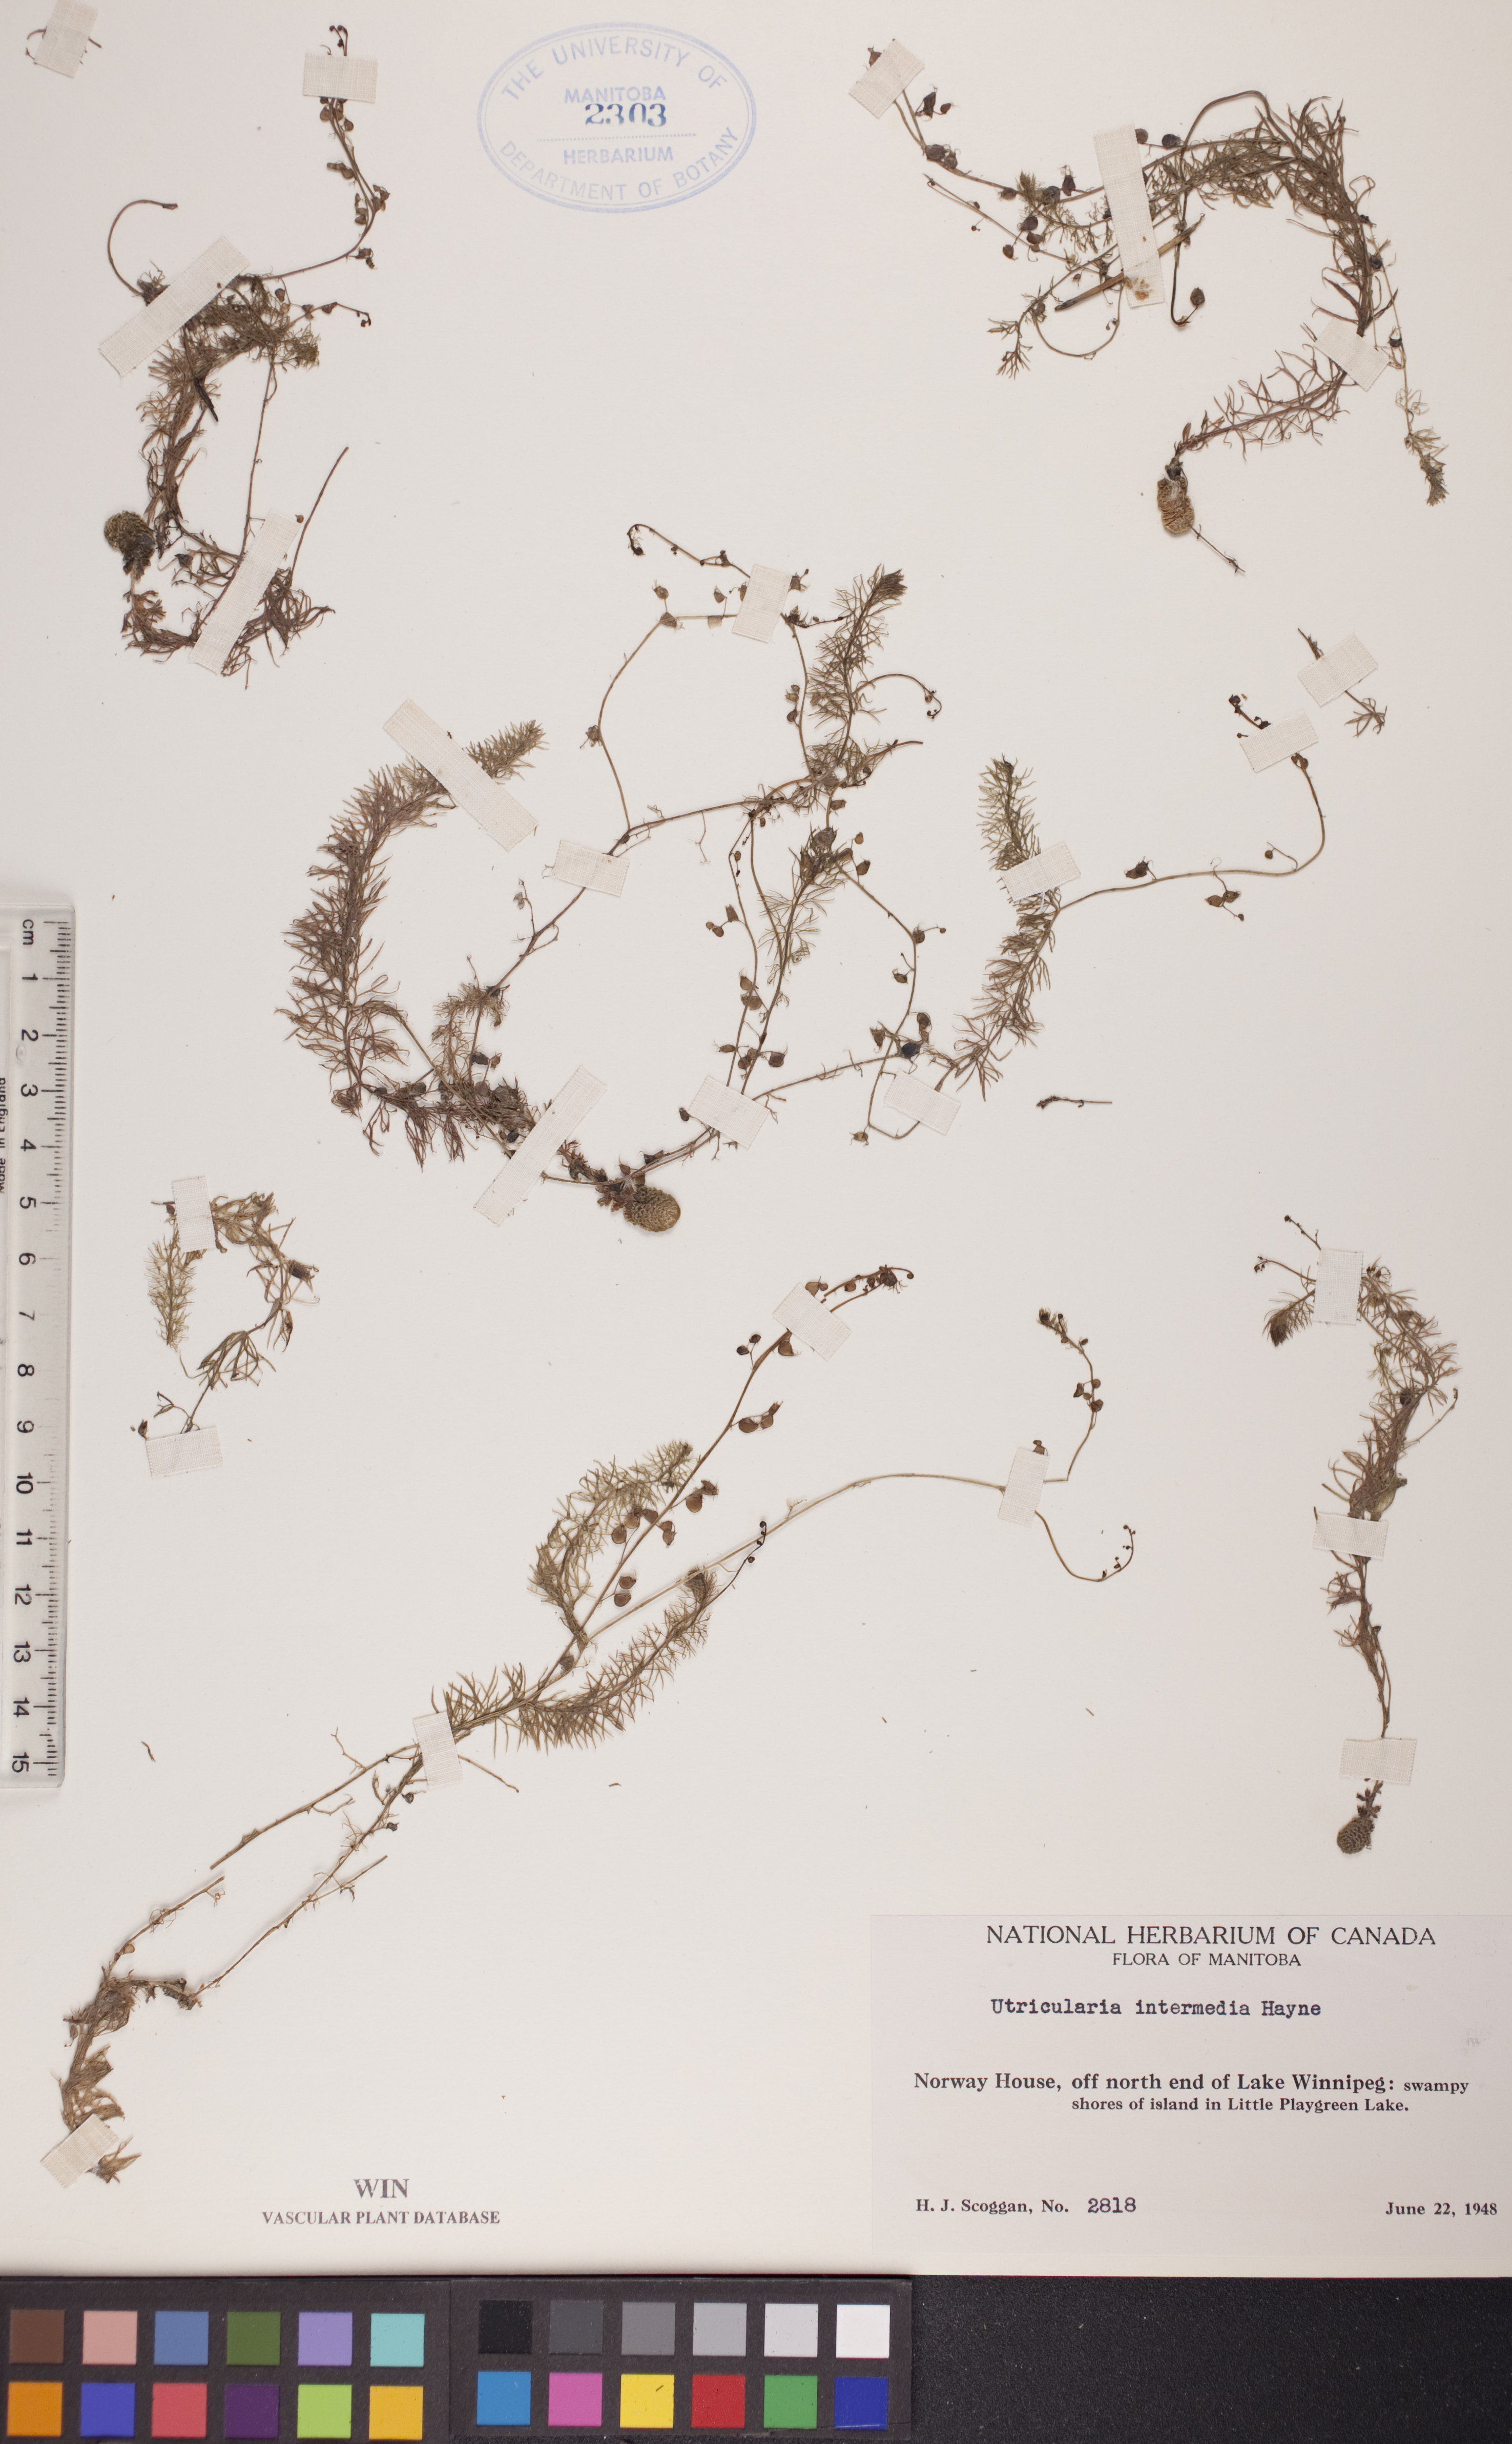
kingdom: Plantae
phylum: Tracheophyta
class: Magnoliopsida
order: Lamiales
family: Lentibulariaceae
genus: Utricularia
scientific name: Utricularia intermedia
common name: Intermediate bladderwort
